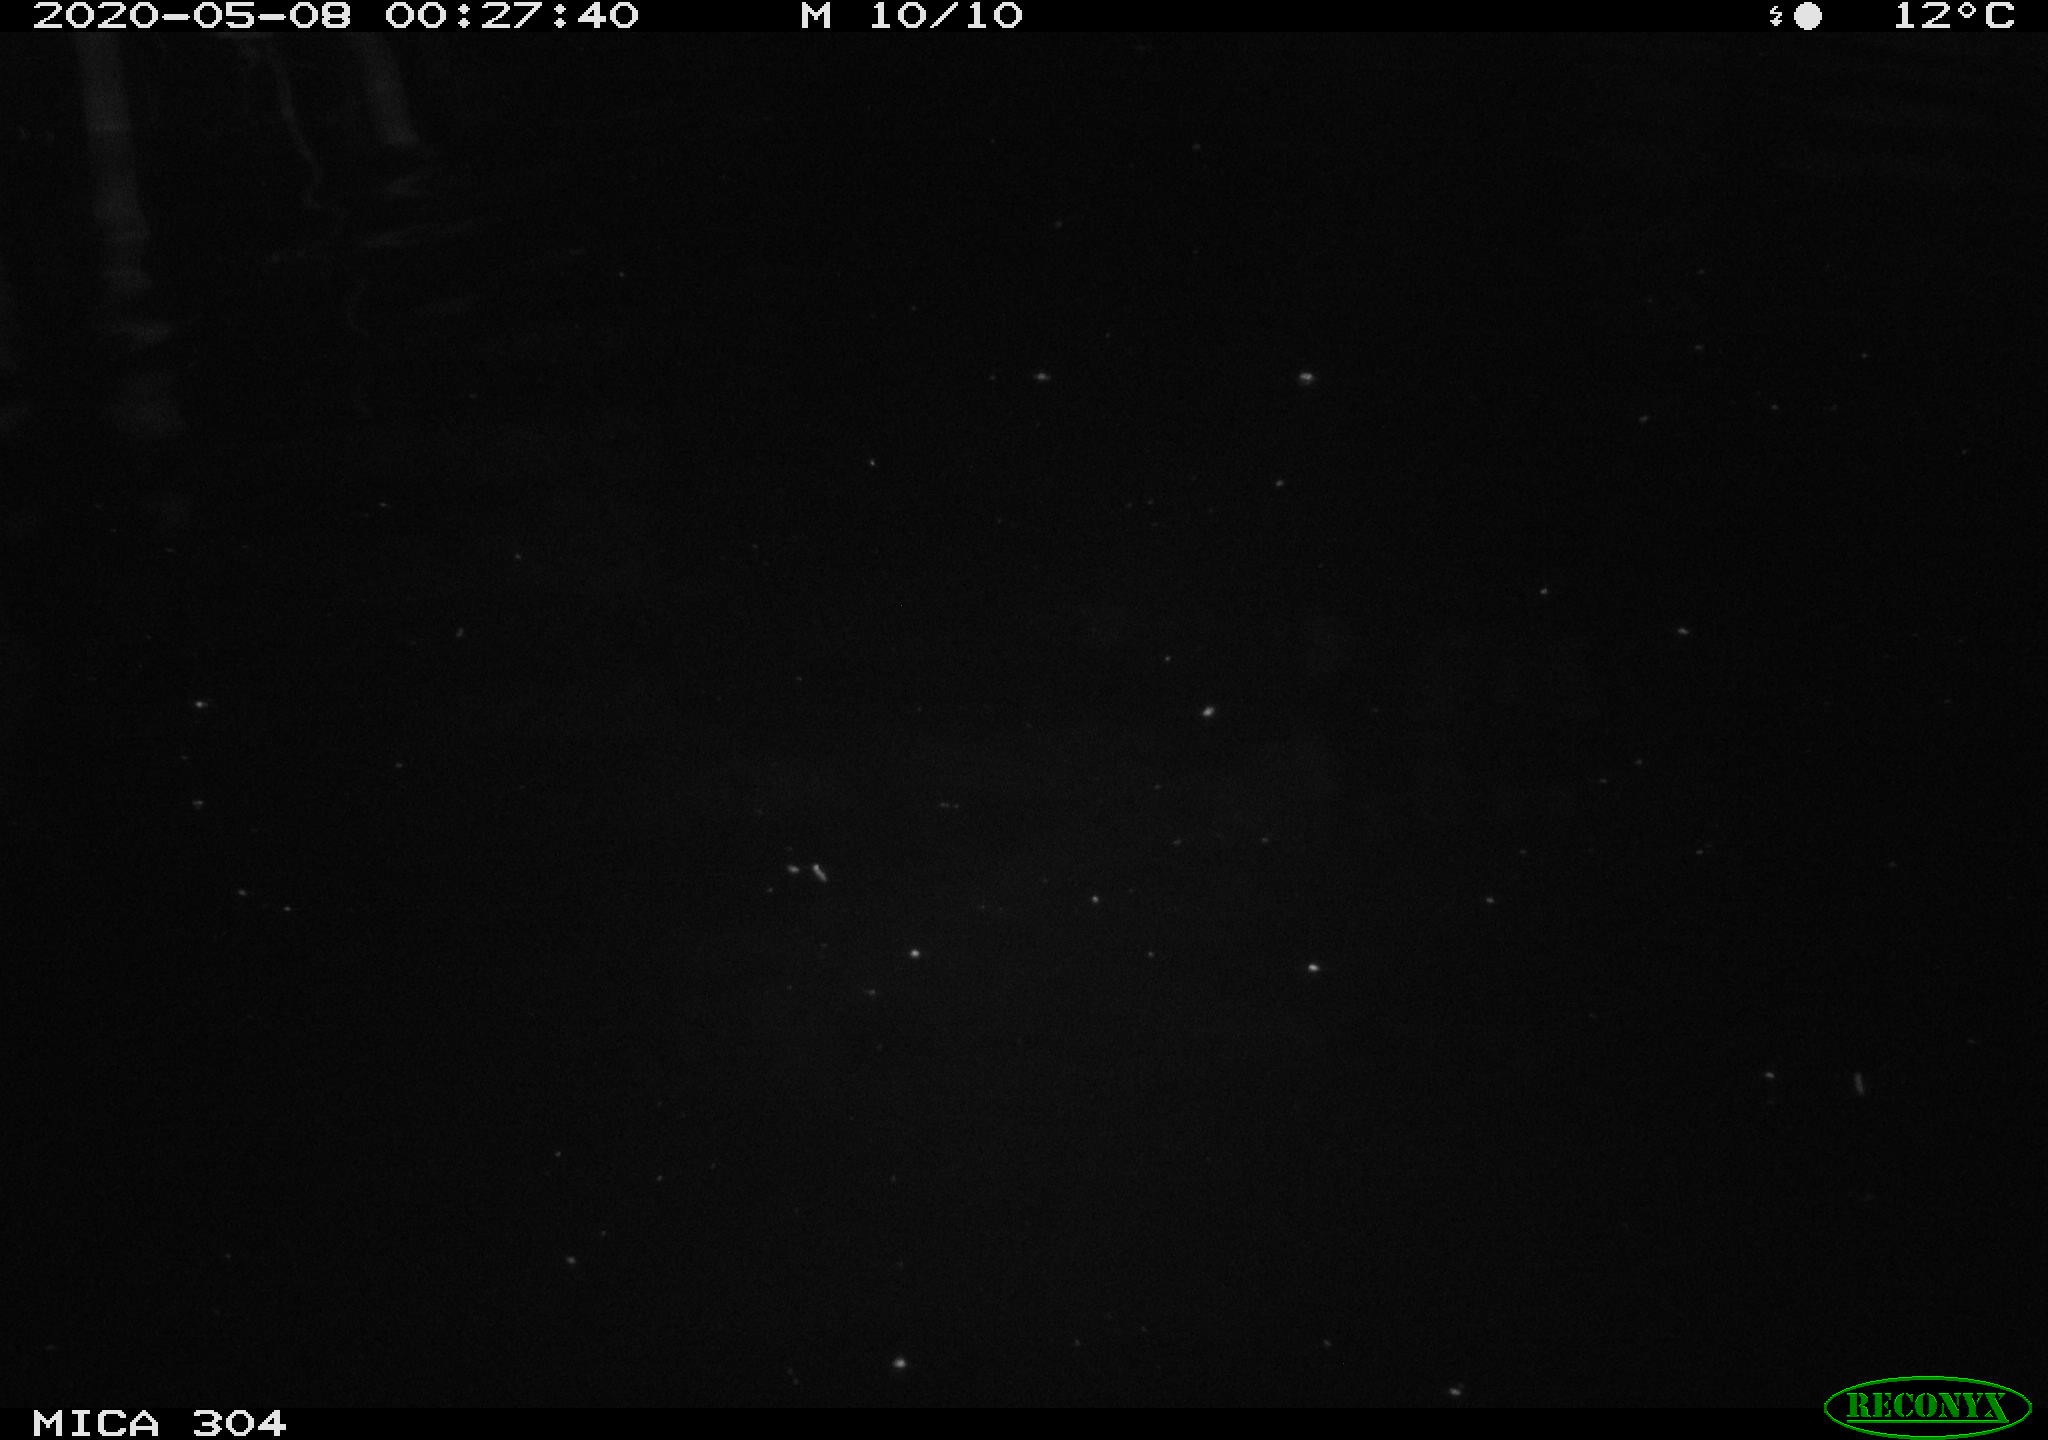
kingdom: Animalia
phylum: Chordata
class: Aves
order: Anseriformes
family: Anatidae
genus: Anas
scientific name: Anas platyrhynchos
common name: Mallard
